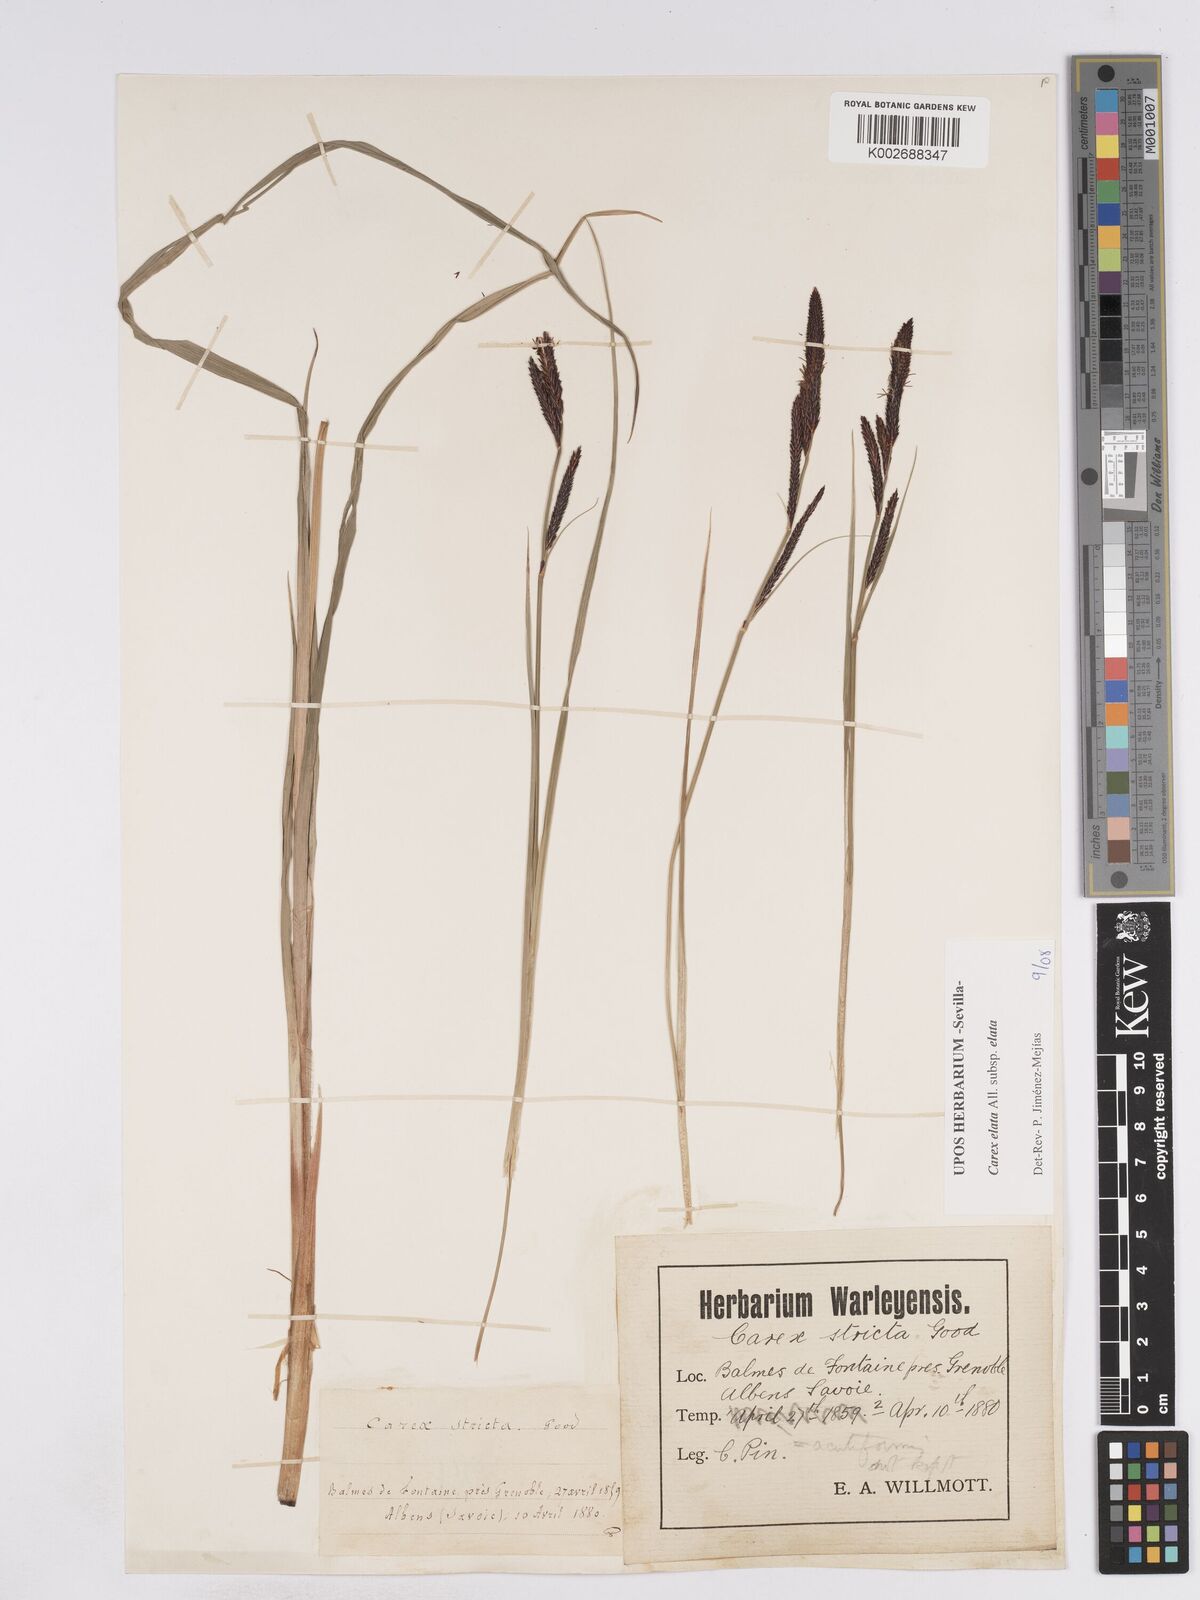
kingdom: Plantae
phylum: Tracheophyta
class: Liliopsida
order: Poales
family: Cyperaceae
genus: Carex
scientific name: Carex elata
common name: Tufted sedge
